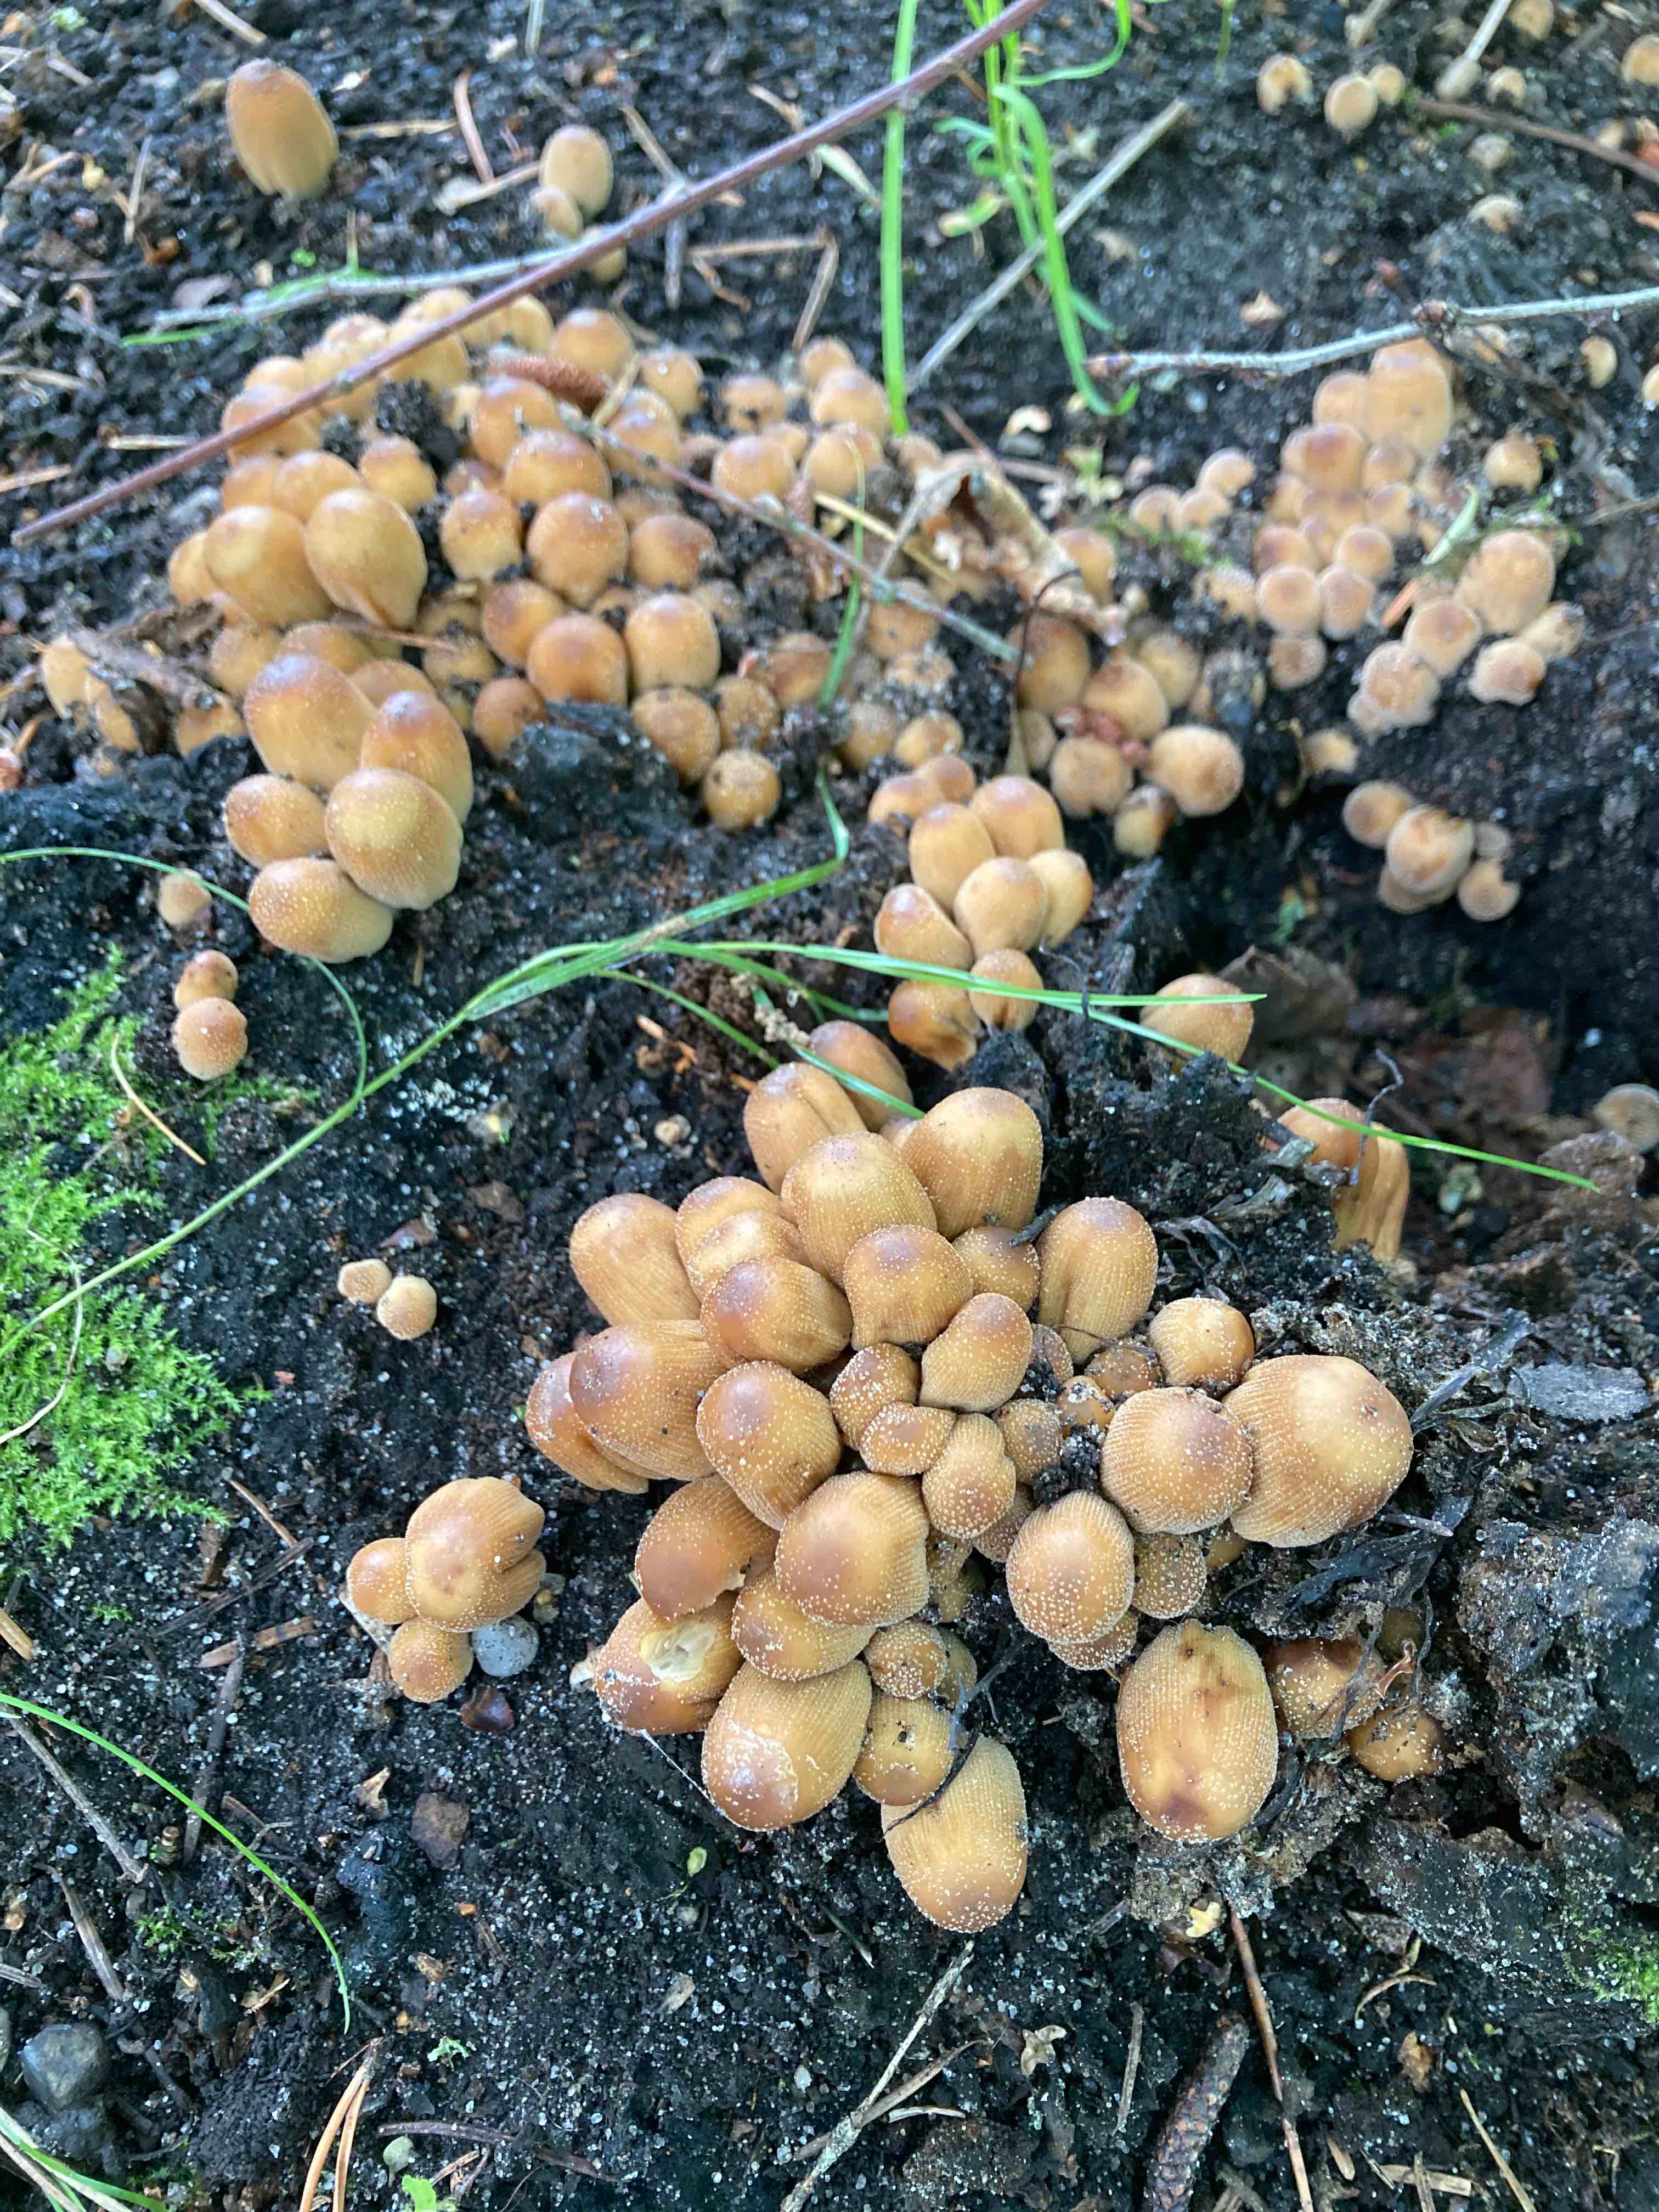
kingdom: Fungi
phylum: Basidiomycota
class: Agaricomycetes
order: Agaricales
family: Psathyrellaceae
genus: Coprinellus
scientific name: Coprinellus micaceus
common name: glimmer-blækhat
